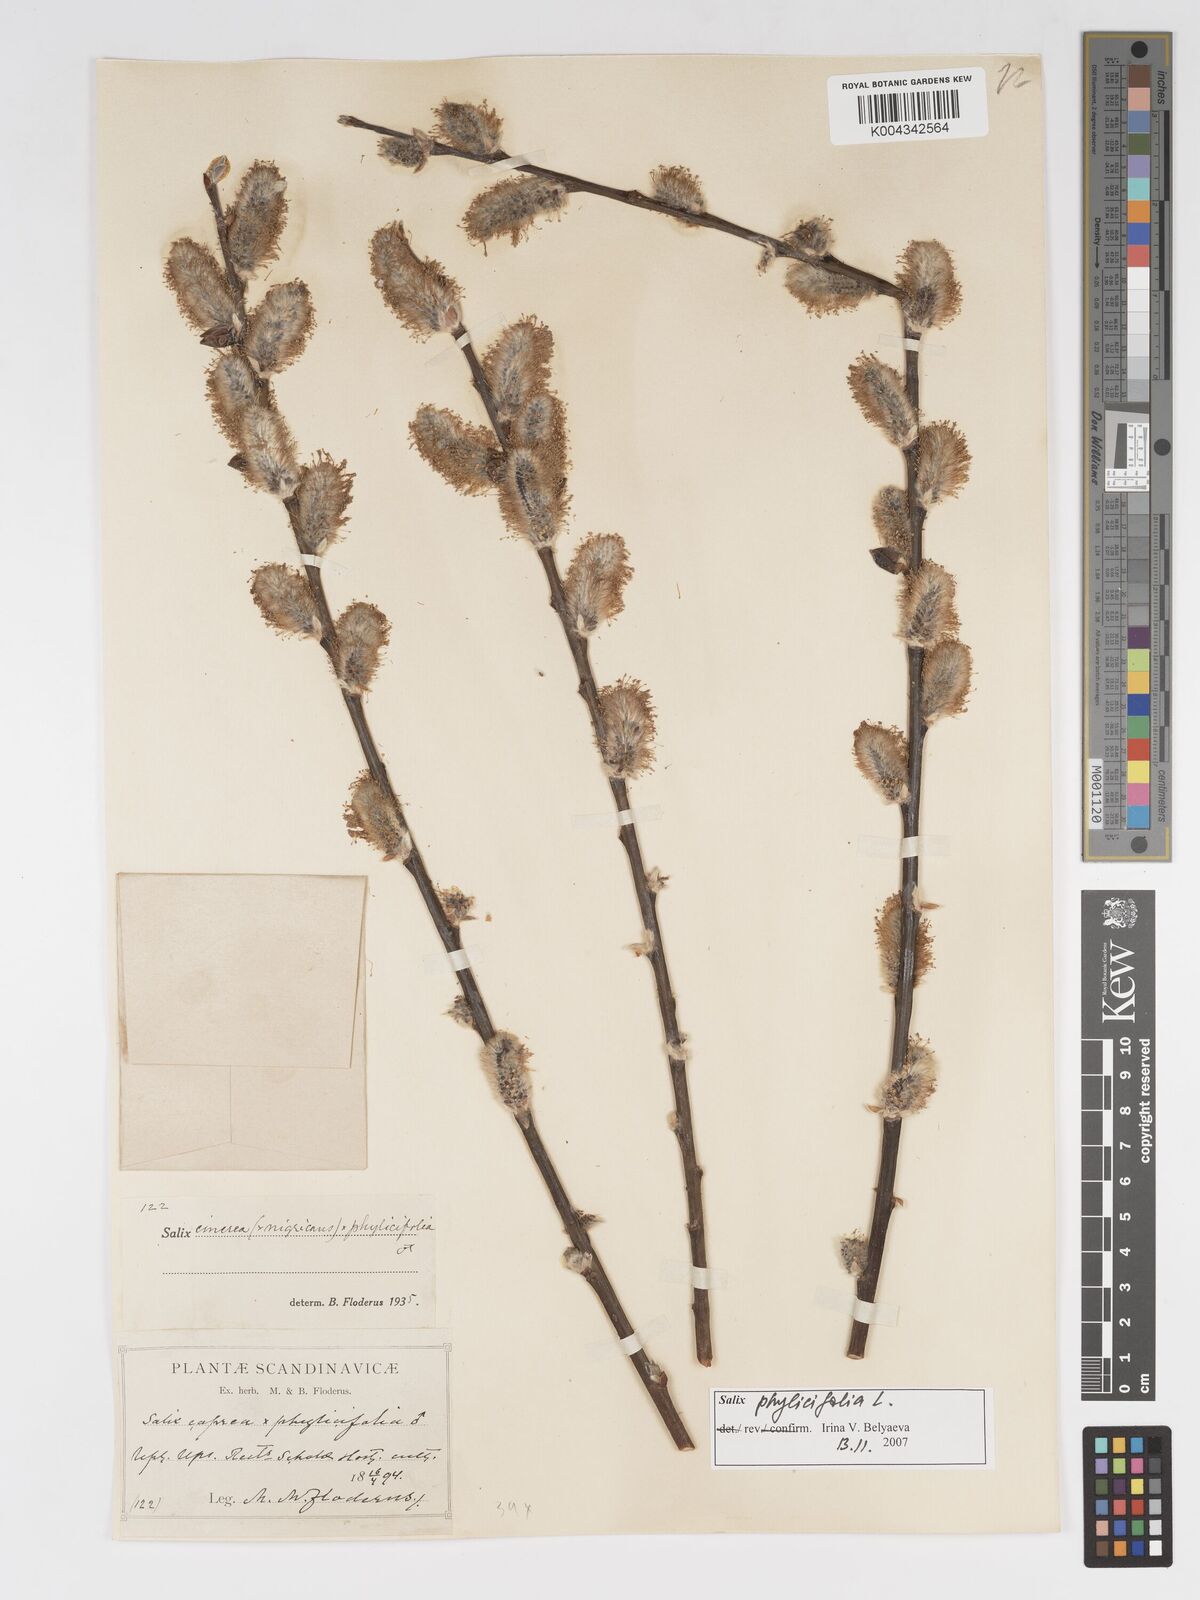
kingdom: Plantae
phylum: Tracheophyta
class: Magnoliopsida
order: Malpighiales
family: Salicaceae
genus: Salix
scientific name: Salix cinerea
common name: Common sallow
